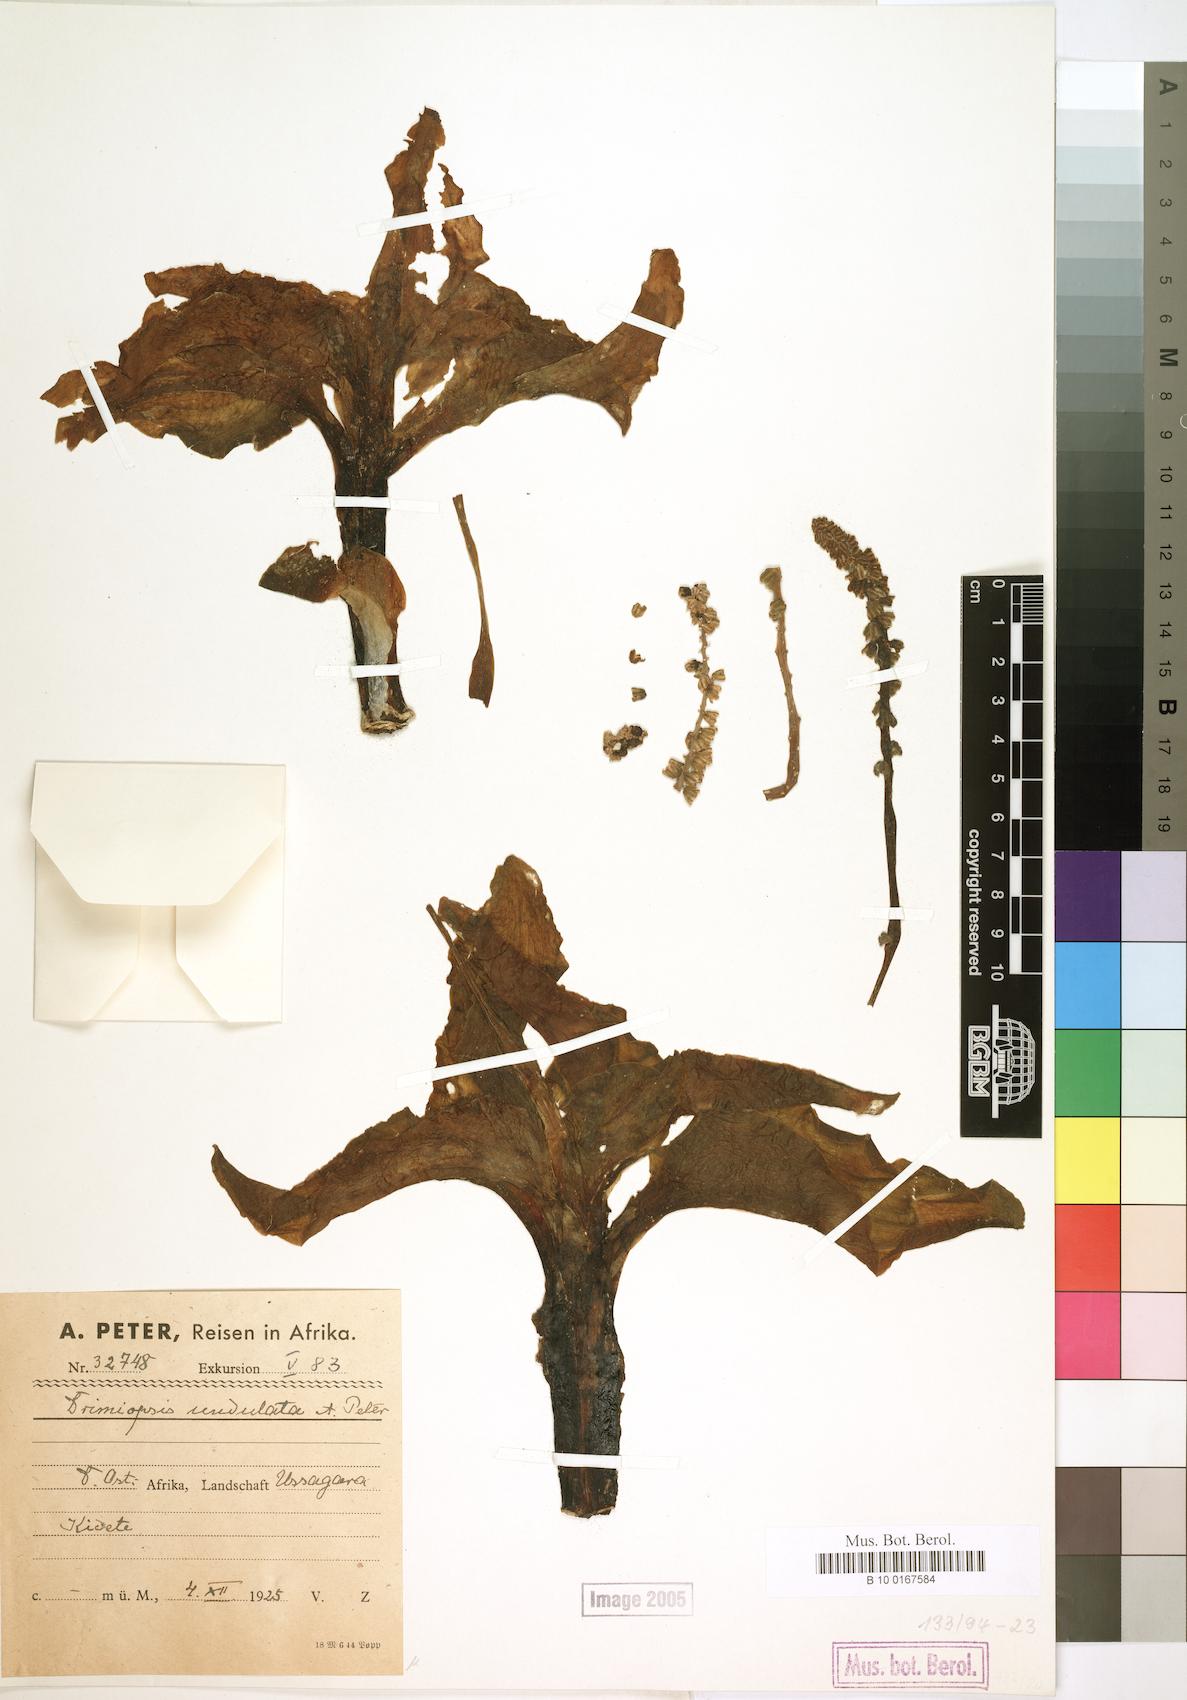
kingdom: Plantae
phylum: Tracheophyta
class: Liliopsida
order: Asparagales
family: Asparagaceae
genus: Drimiopsis
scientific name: Drimiopsis
